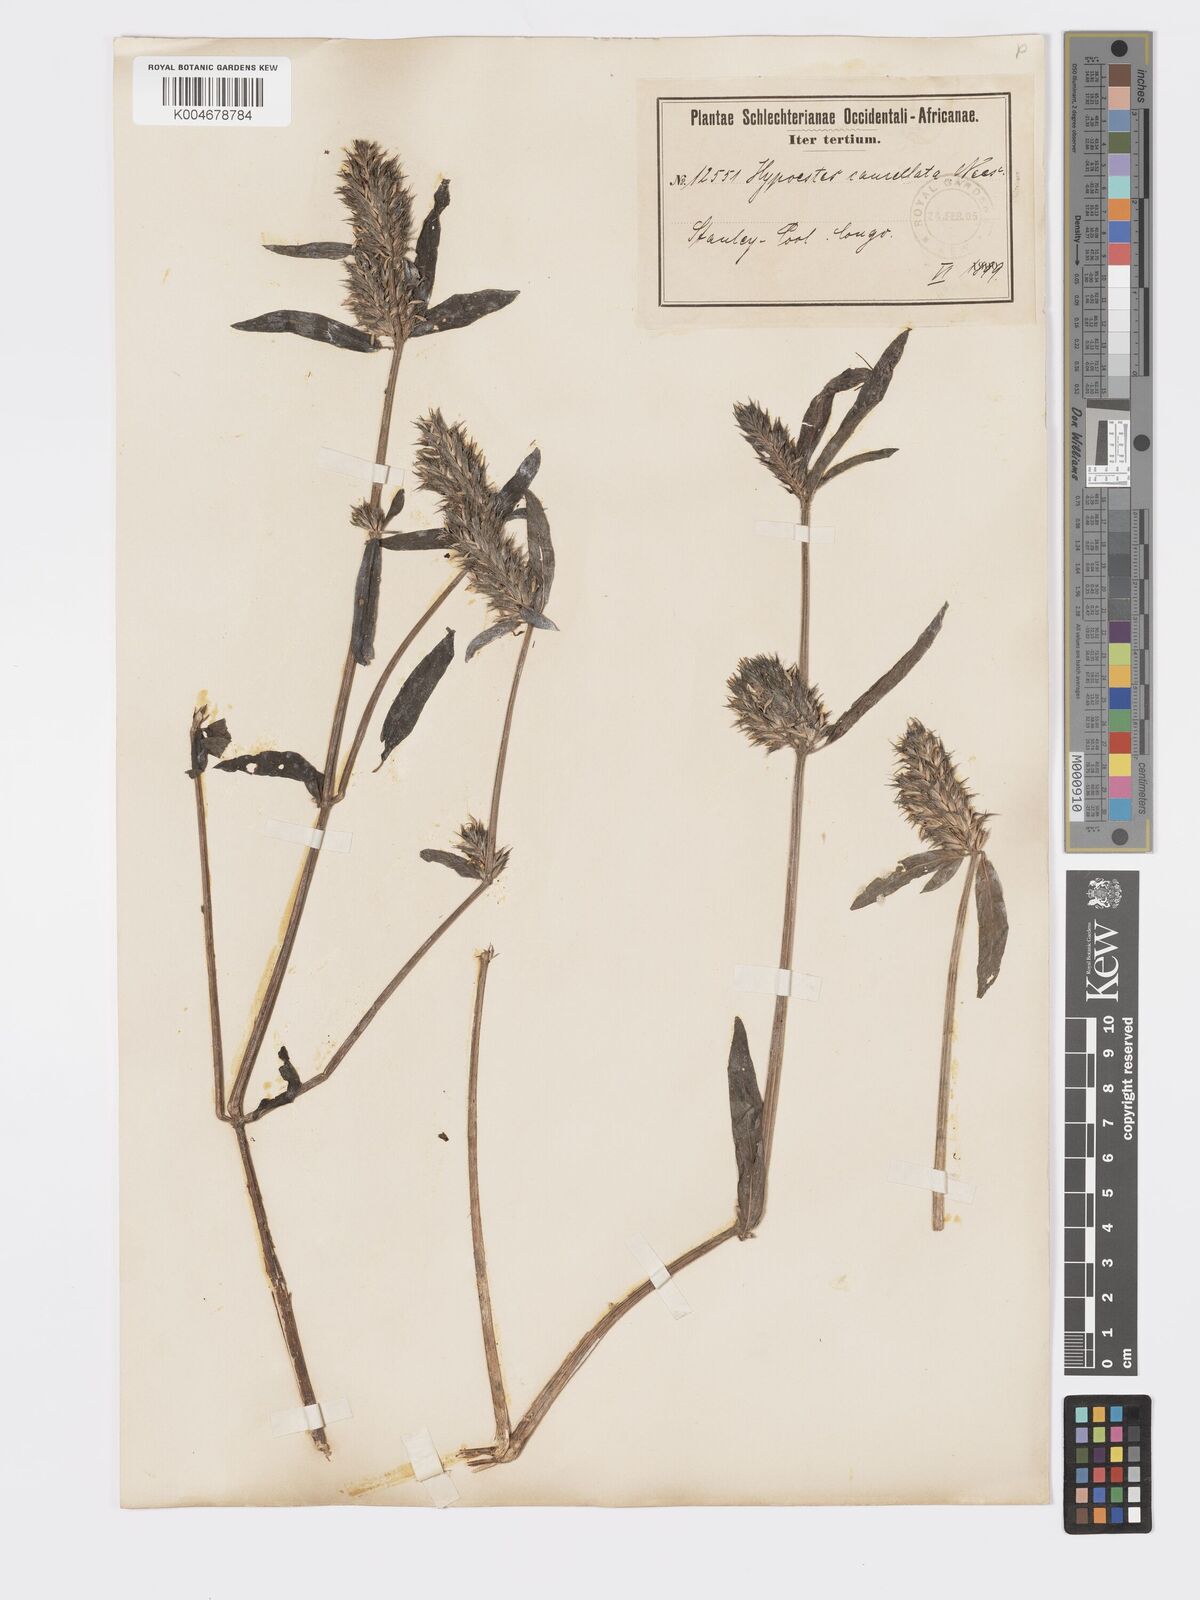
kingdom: Plantae
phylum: Tracheophyta
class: Magnoliopsida
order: Lamiales
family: Acanthaceae
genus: Hypoestes
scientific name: Hypoestes cancellata
